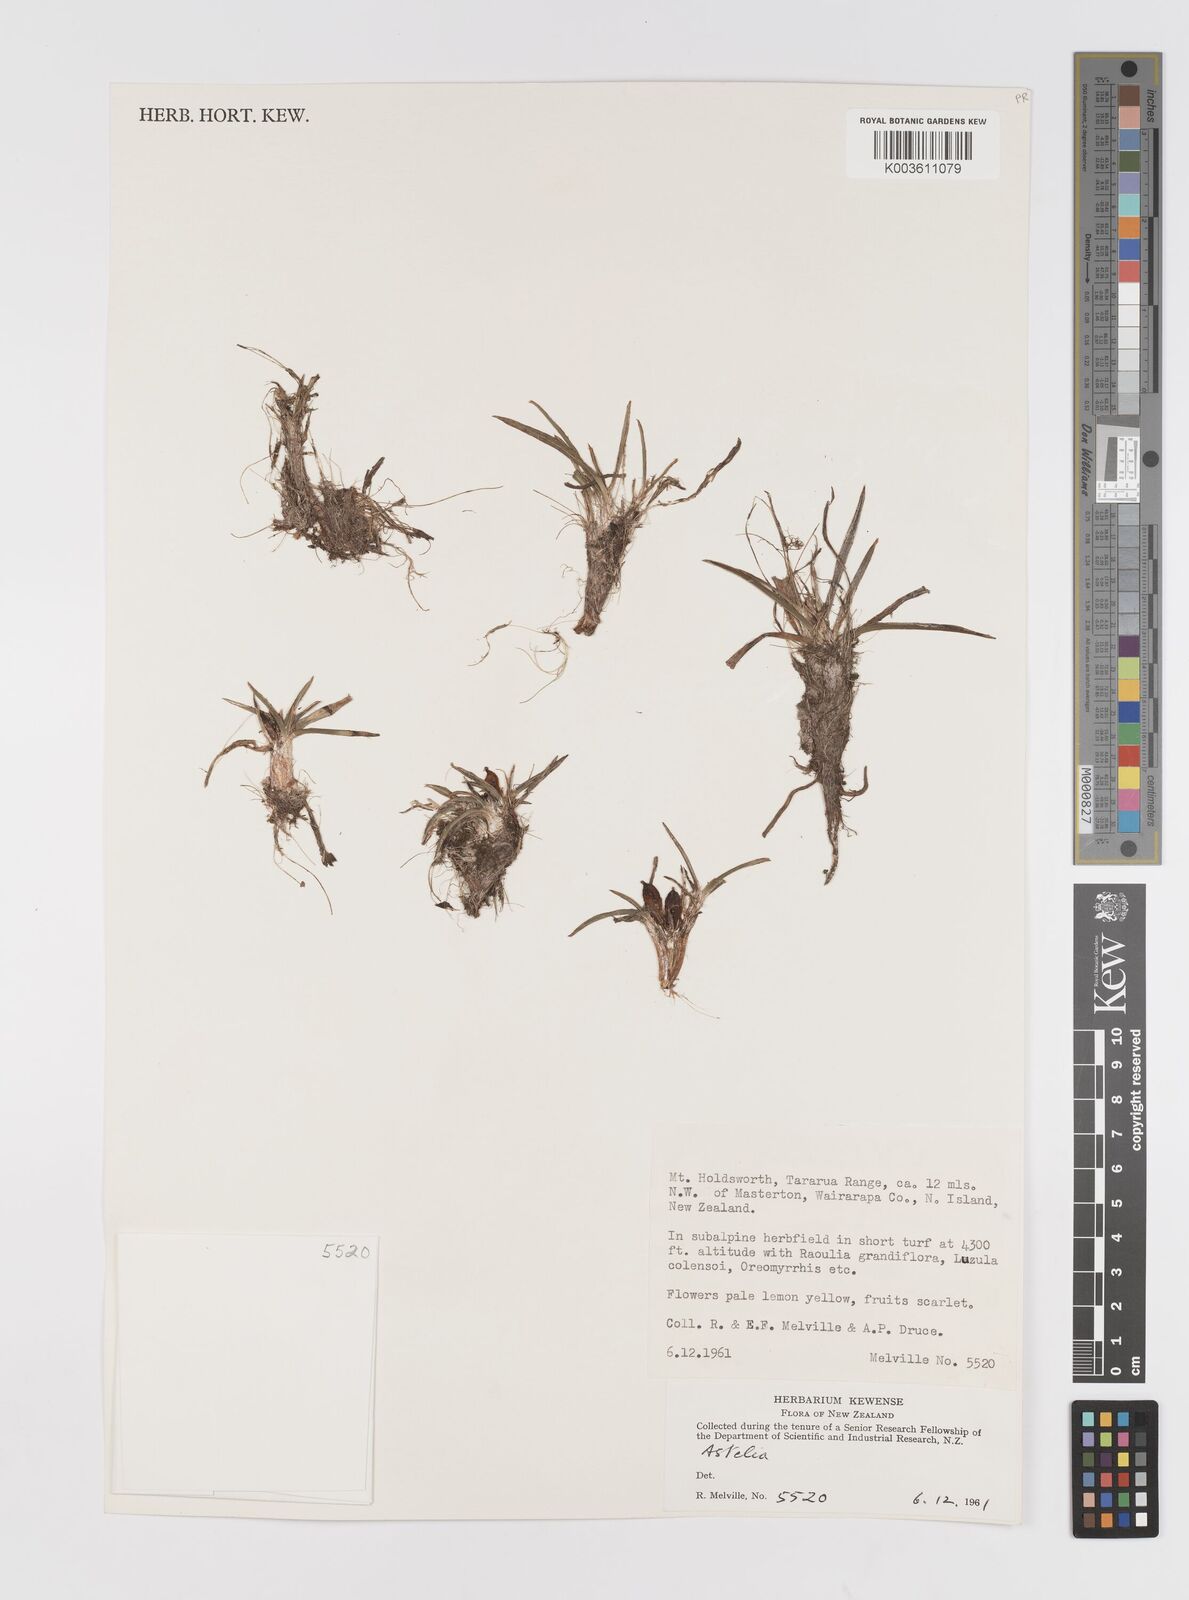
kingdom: Plantae
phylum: Tracheophyta
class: Liliopsida
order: Asparagales
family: Asteliaceae
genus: Astelia
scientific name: Astelia
